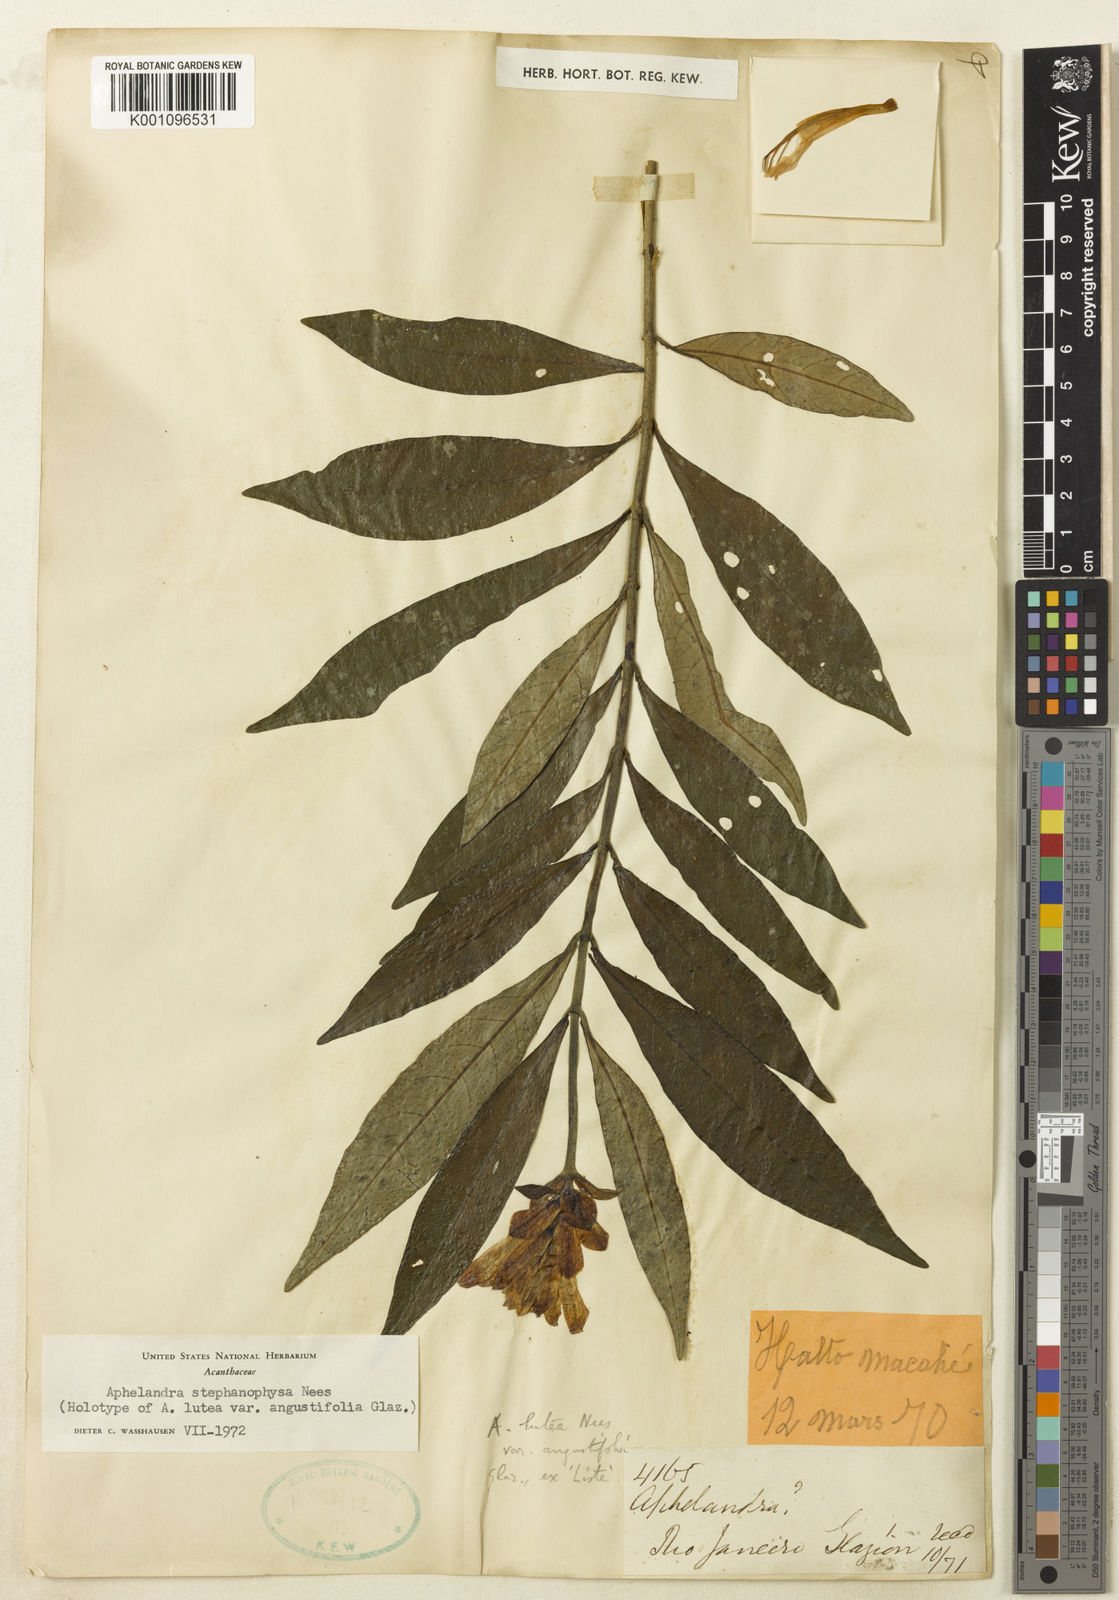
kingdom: Plantae
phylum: Tracheophyta
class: Magnoliopsida
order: Lamiales
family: Acanthaceae
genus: Aphelandra
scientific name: Aphelandra stephanophysa
